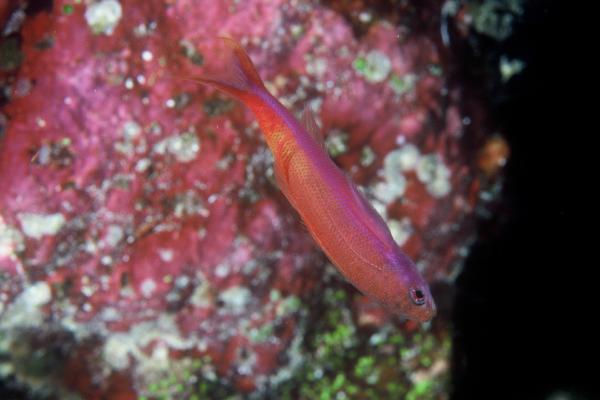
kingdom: Animalia
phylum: Chordata
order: Perciformes
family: Serranidae
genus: Luzonichthys
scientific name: Luzonichthys waitei
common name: Waite's splitfin
